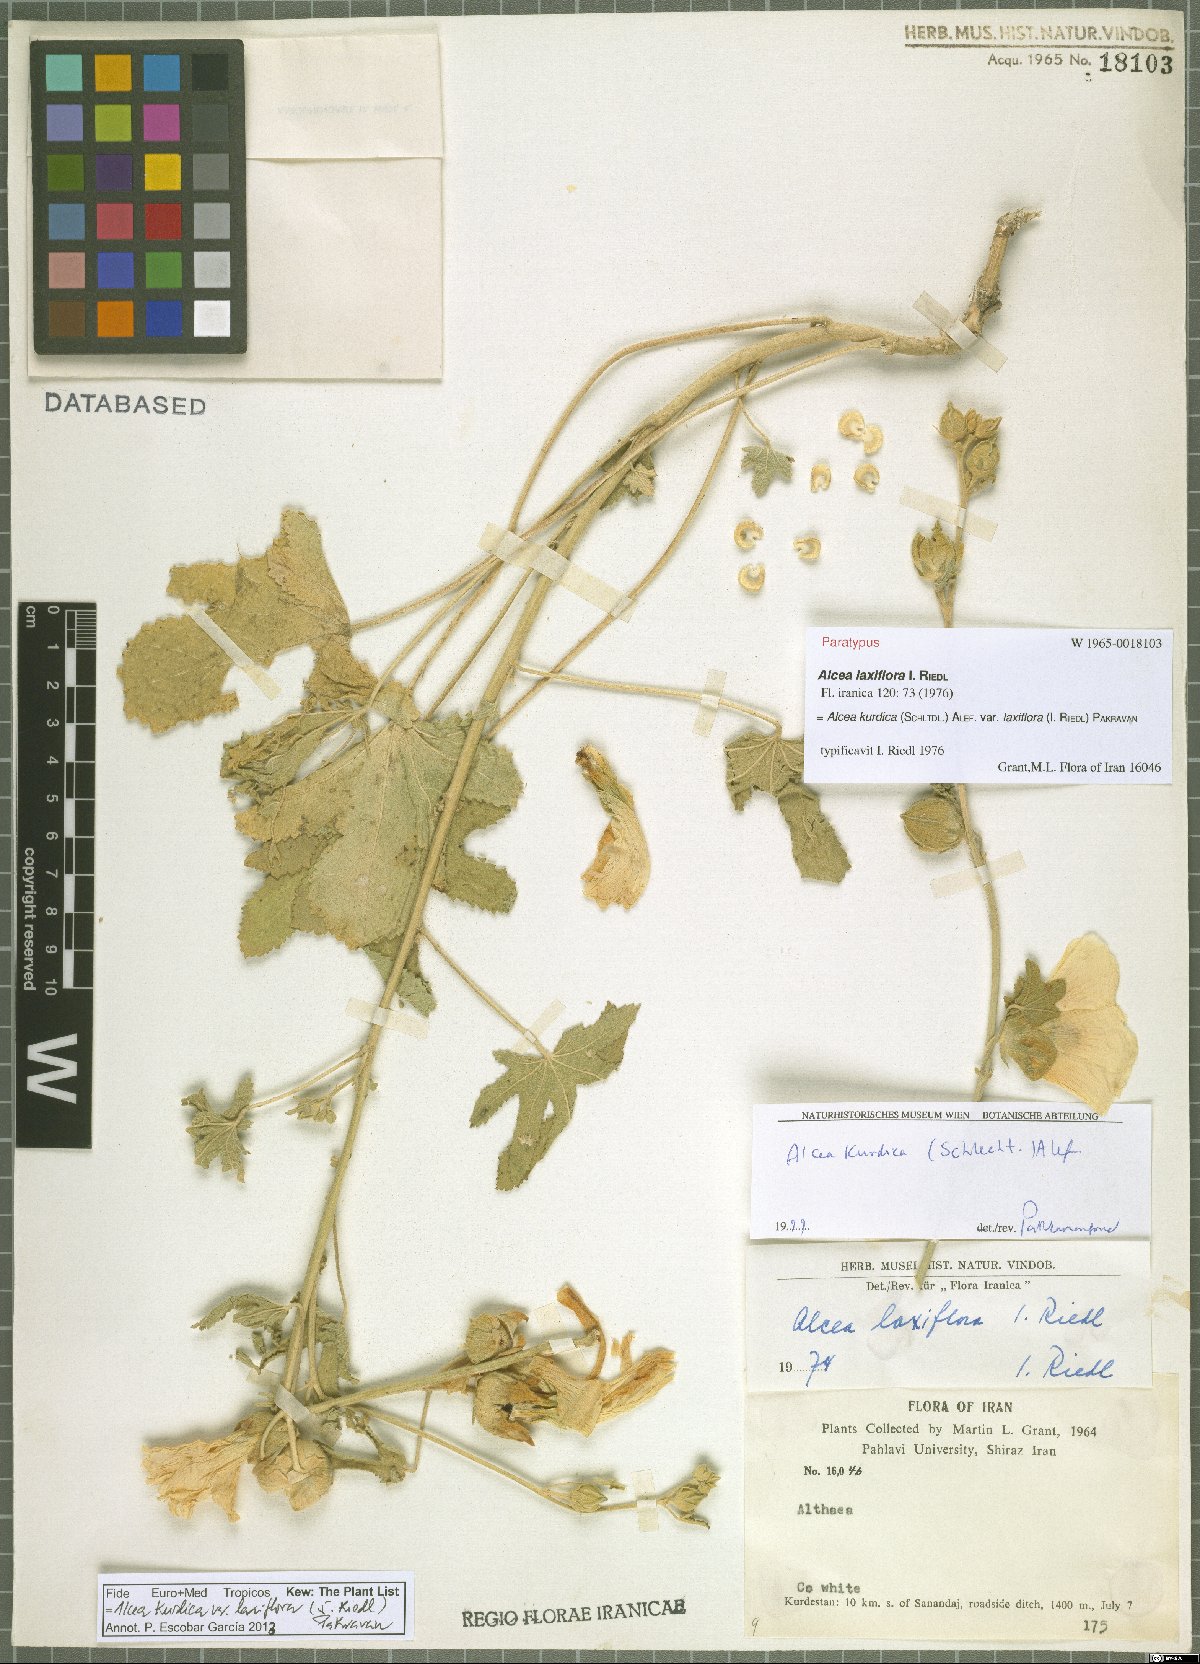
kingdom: Plantae
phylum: Tracheophyta
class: Magnoliopsida
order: Malvales
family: Malvaceae
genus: Alcea
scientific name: Alcea kurdica
